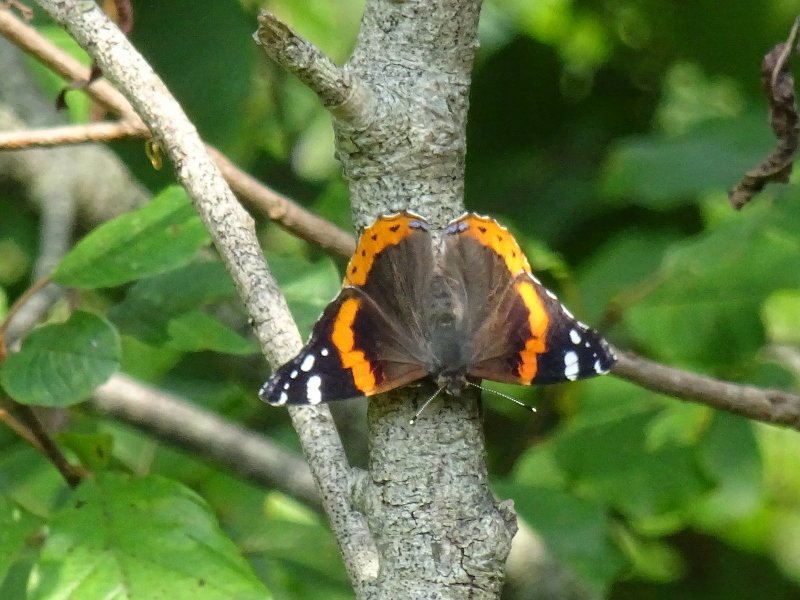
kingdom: Animalia
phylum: Arthropoda
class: Insecta
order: Lepidoptera
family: Nymphalidae
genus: Vanessa
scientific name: Vanessa atalanta
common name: Red Admiral
